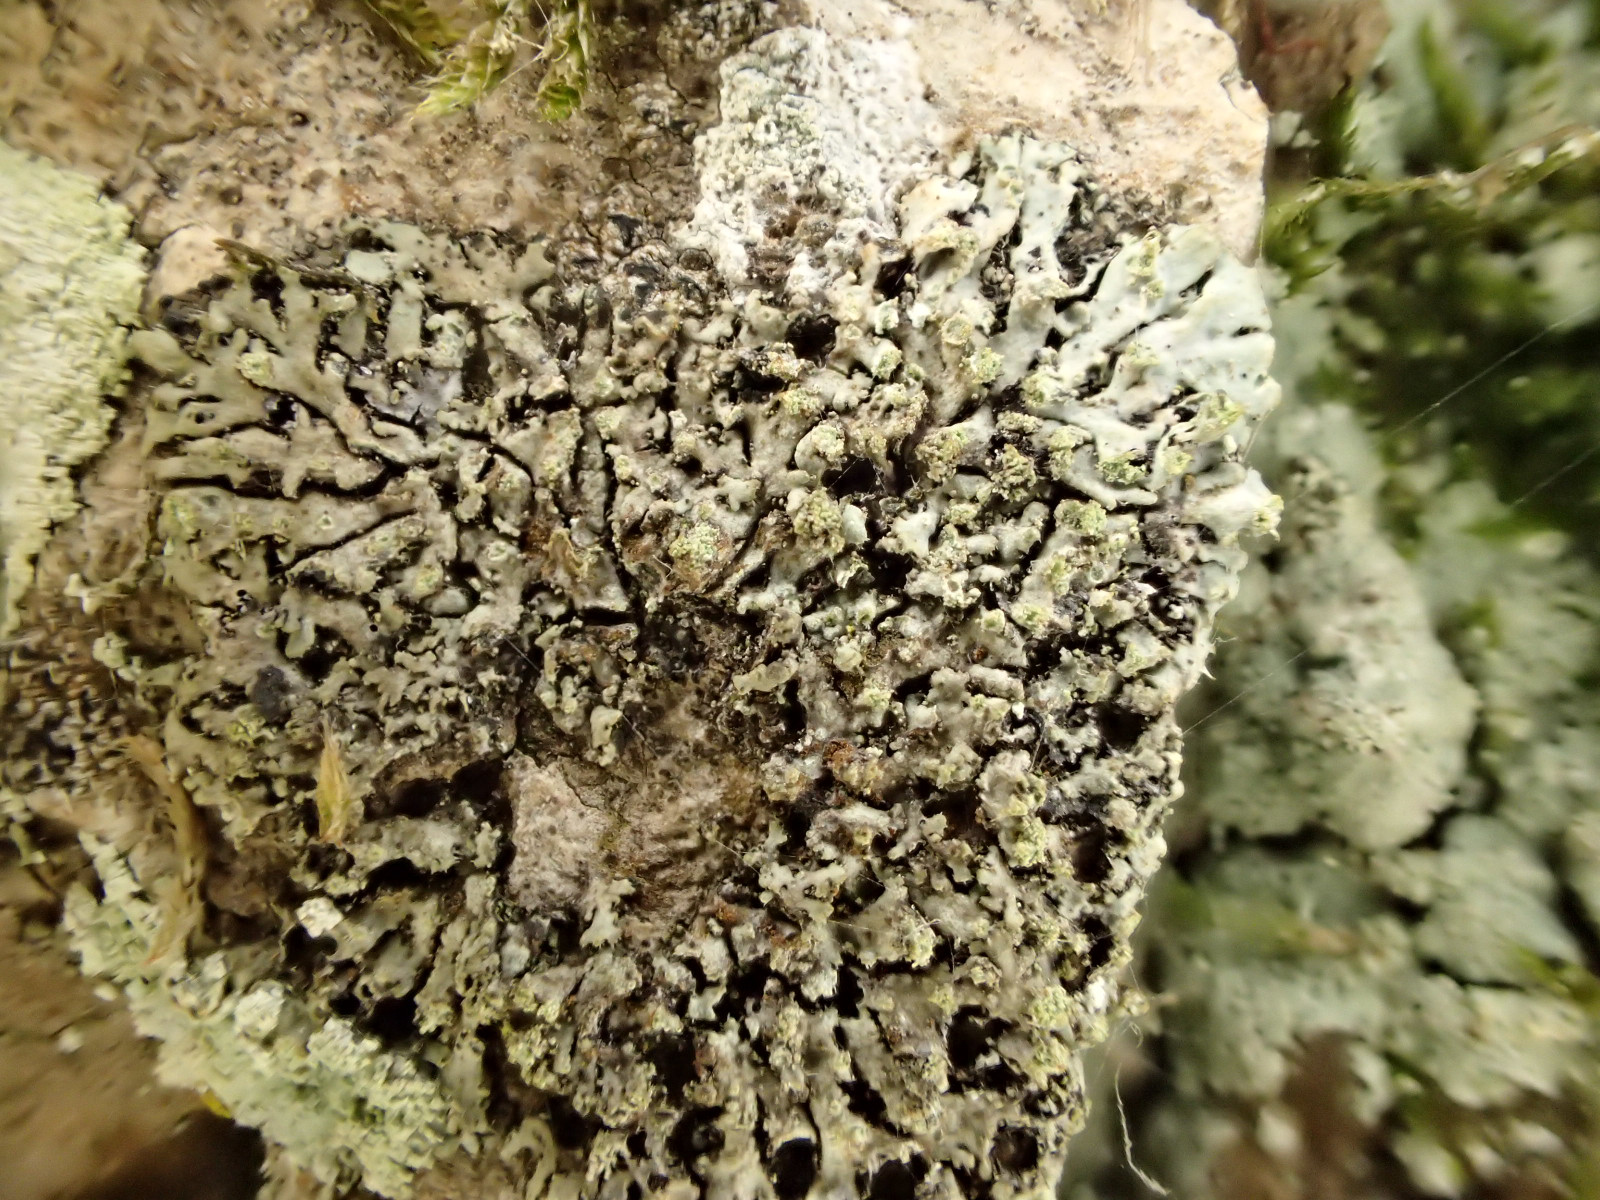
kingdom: Fungi
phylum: Ascomycota
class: Lecanoromycetes
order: Caliciales
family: Physciaceae
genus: Phaeophyscia
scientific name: Phaeophyscia orbicularis
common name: grågrøn rosetlav
